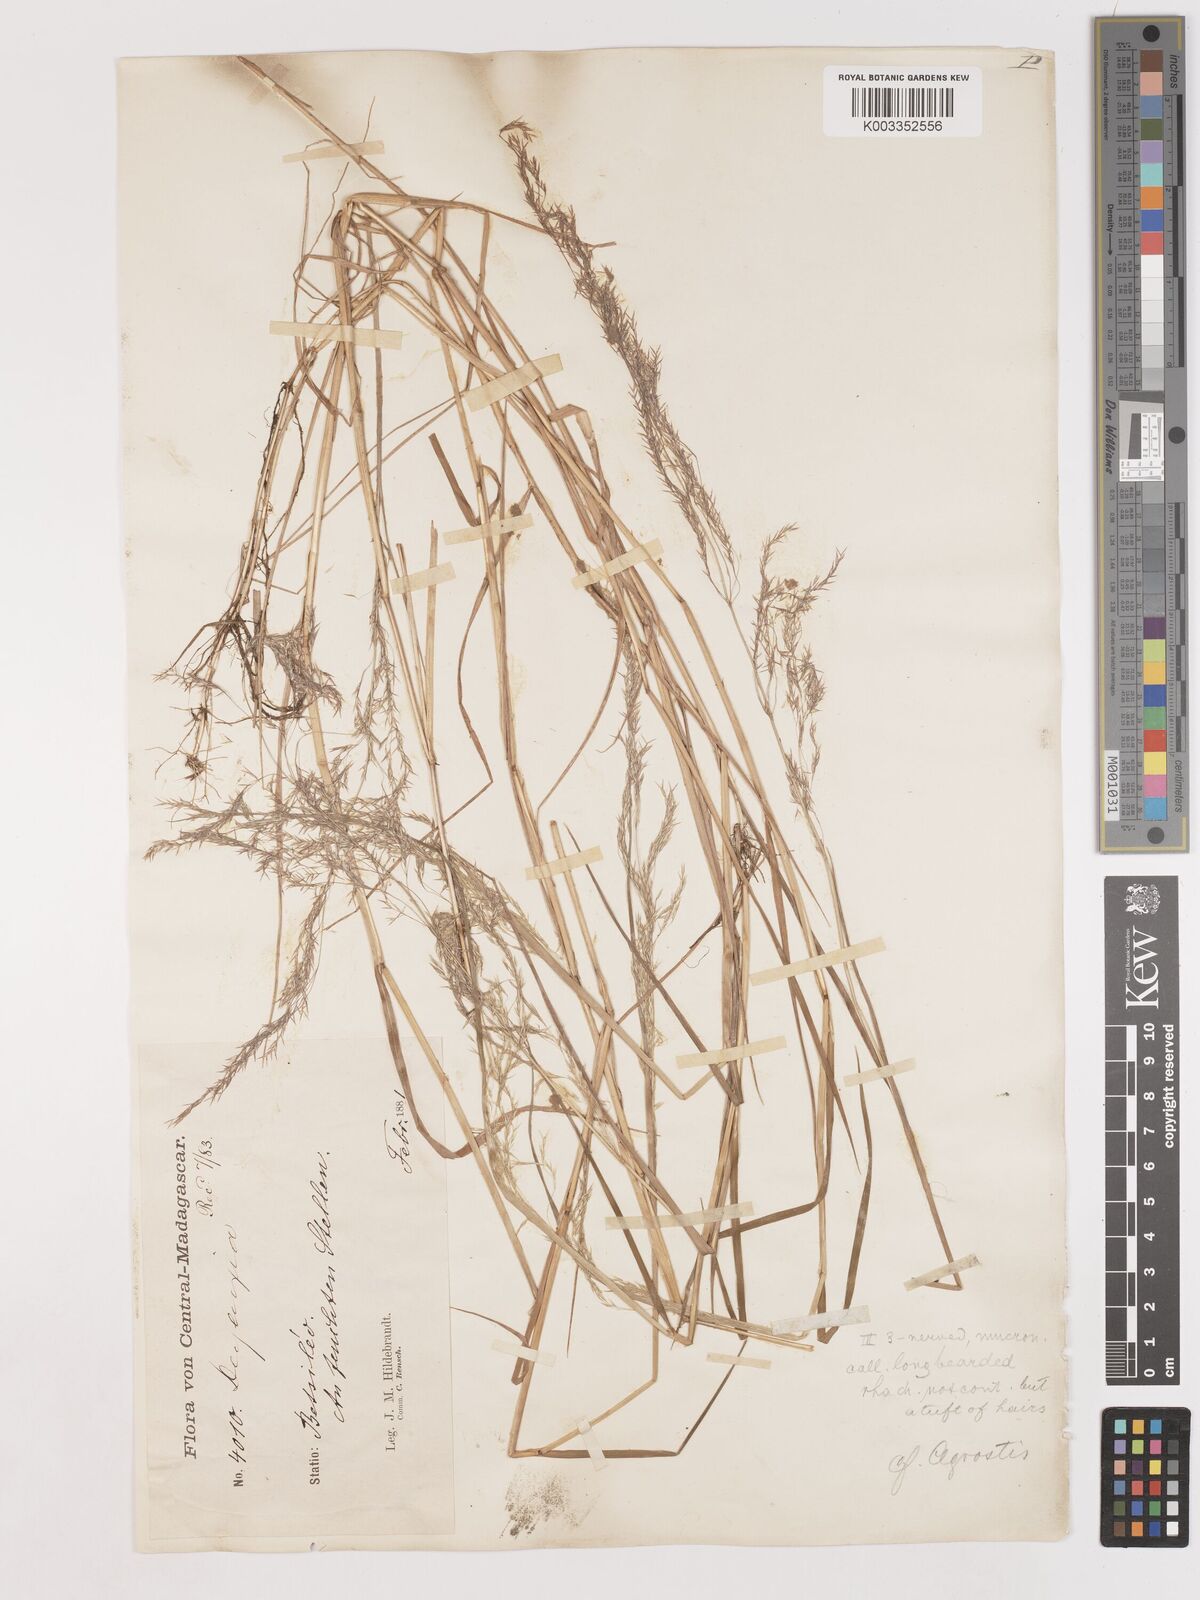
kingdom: Plantae
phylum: Tracheophyta
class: Liliopsida
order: Poales
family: Poaceae
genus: Agrostis
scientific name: Agrostis emirnensis
